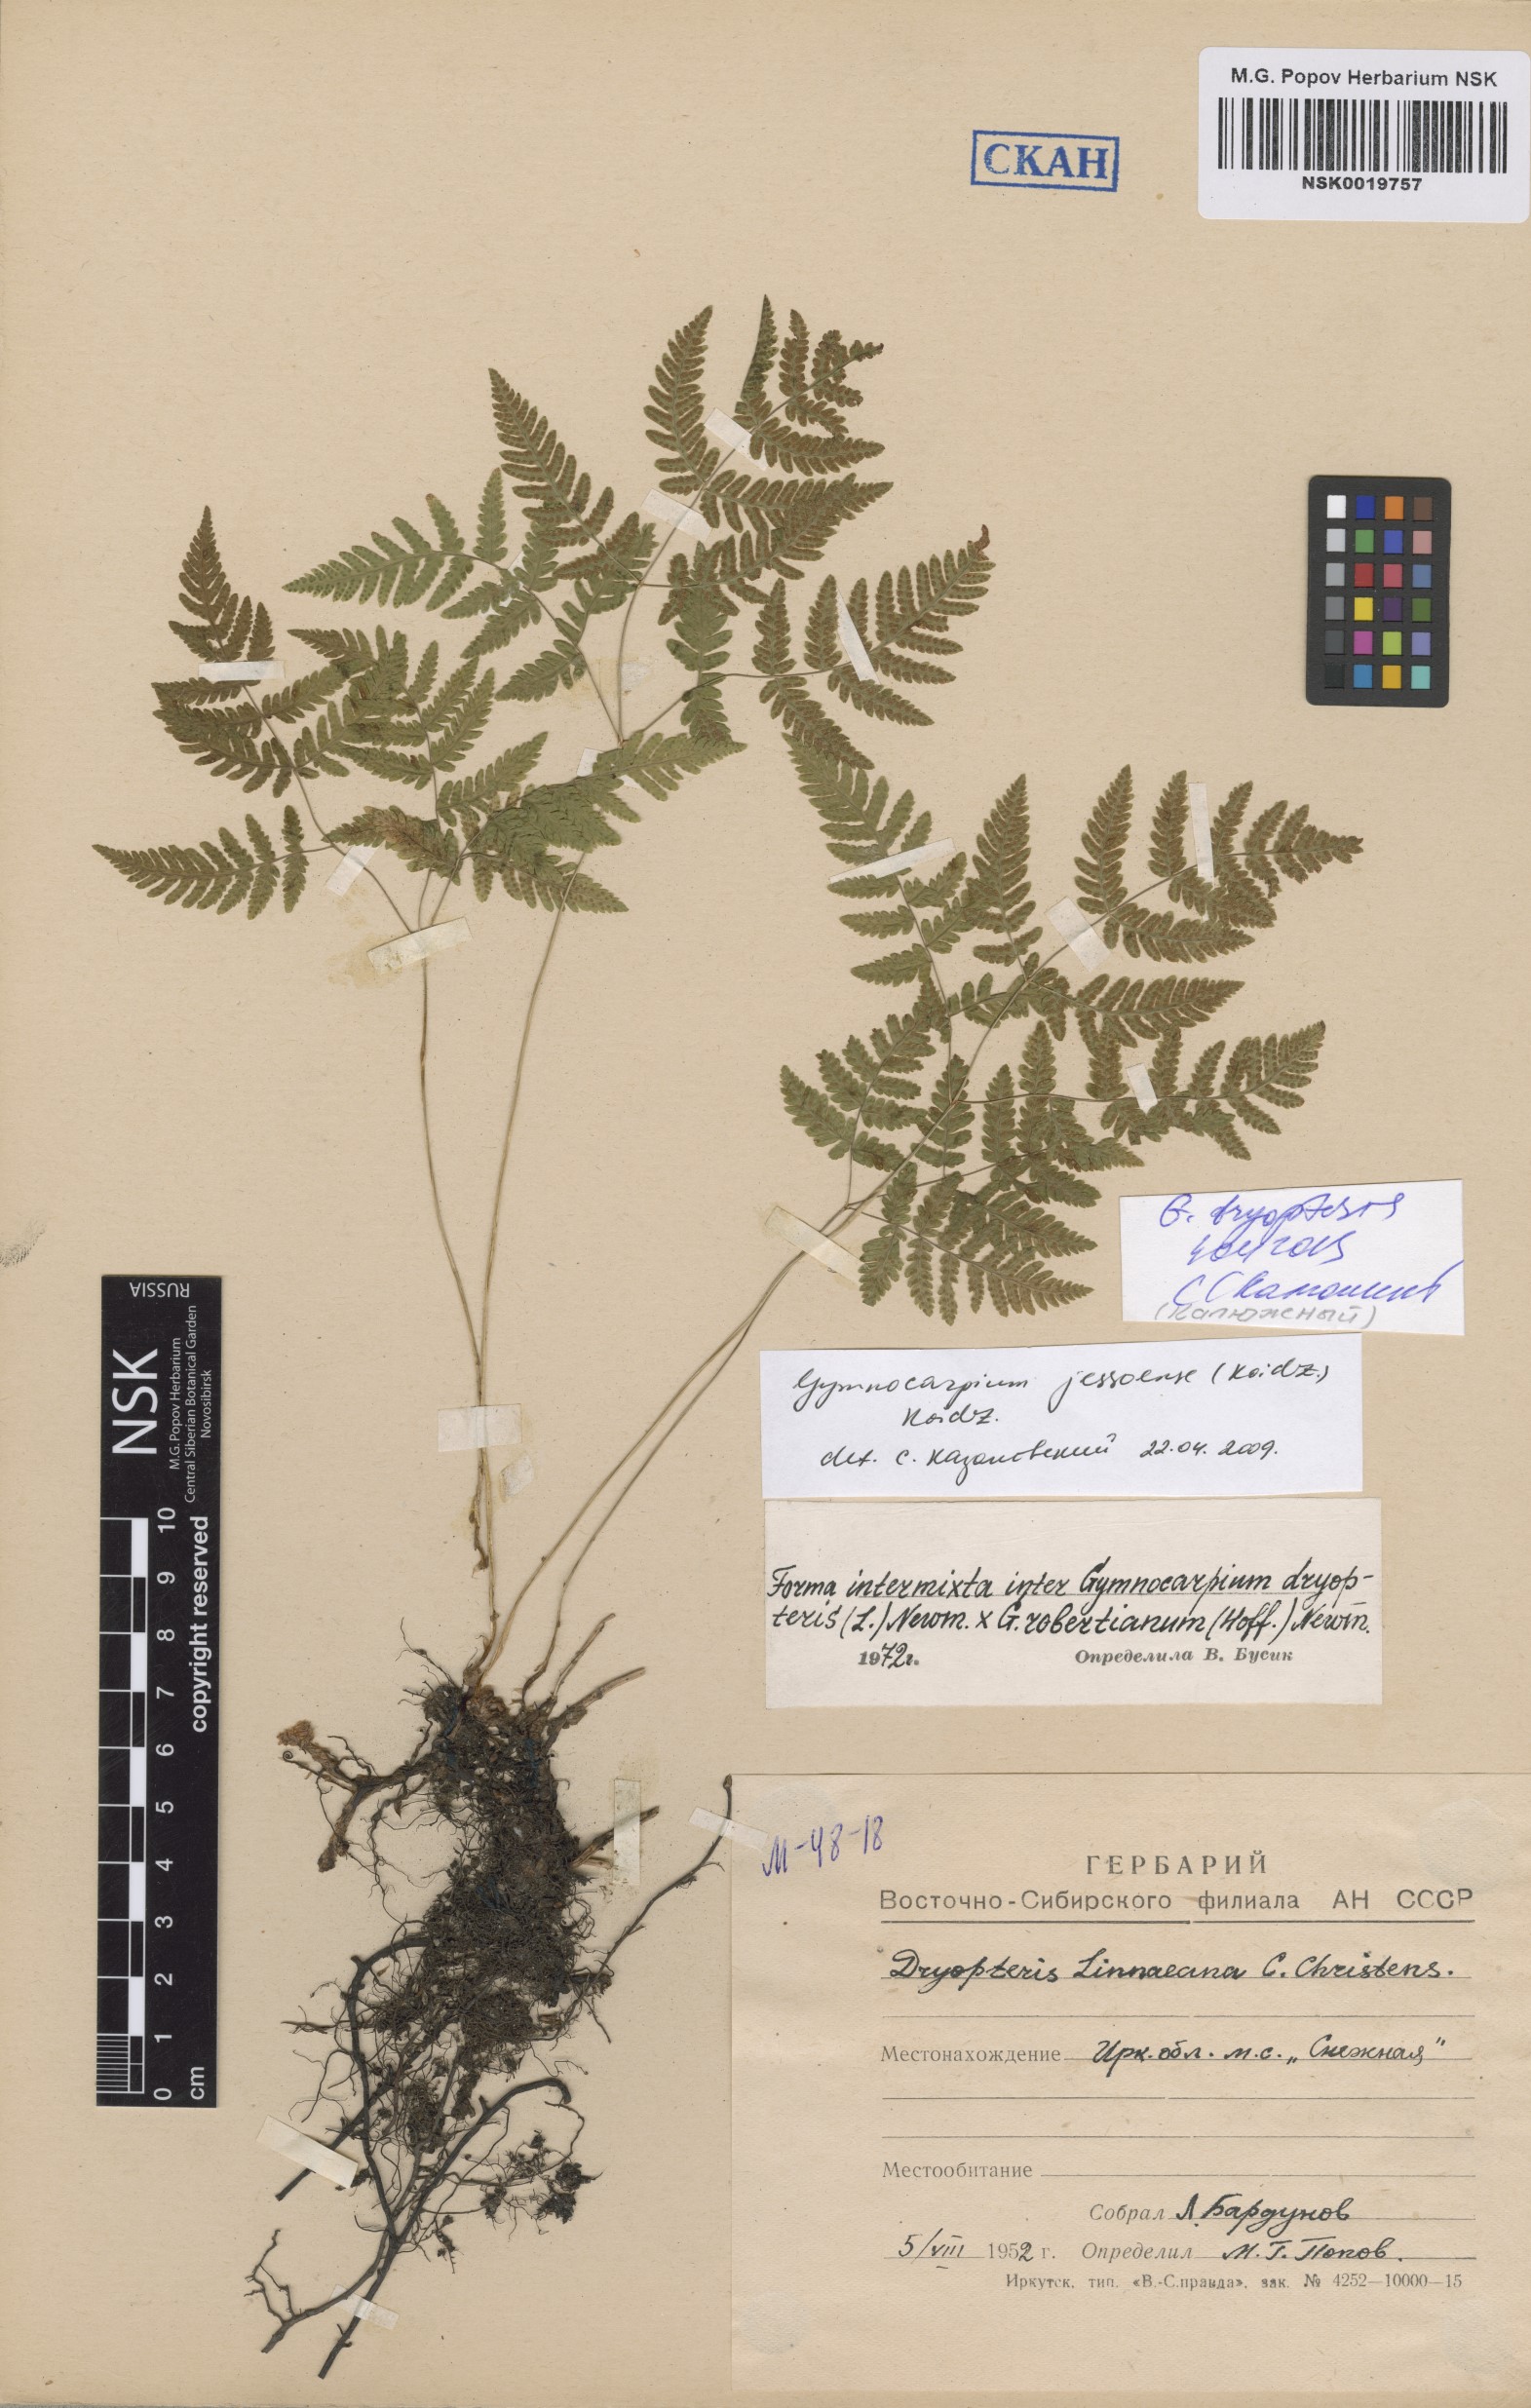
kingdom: Plantae
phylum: Tracheophyta
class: Polypodiopsida
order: Polypodiales
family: Cystopteridaceae
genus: Gymnocarpium
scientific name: Gymnocarpium dryopteris
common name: Oak fern
